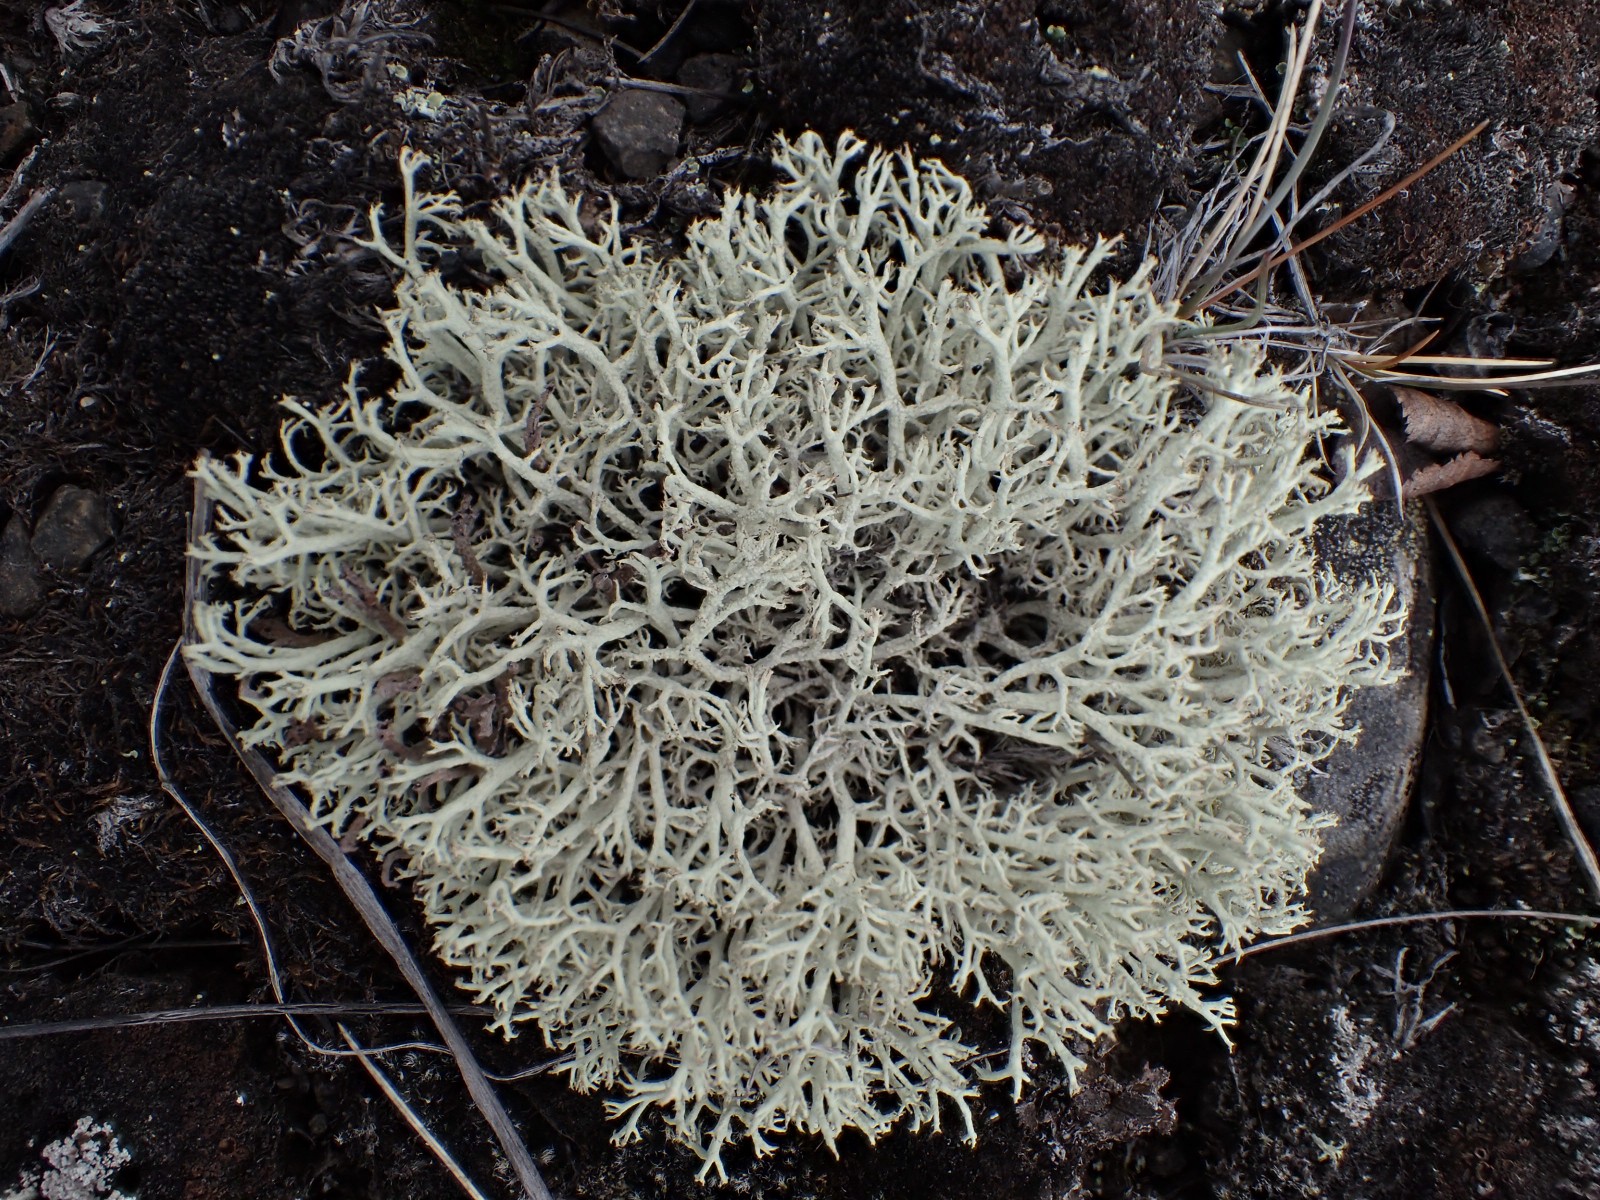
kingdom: Fungi
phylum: Ascomycota
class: Lecanoromycetes
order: Lecanorales
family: Cladoniaceae
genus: Cladonia
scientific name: Cladonia portentosa
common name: hede-rensdyrlav
